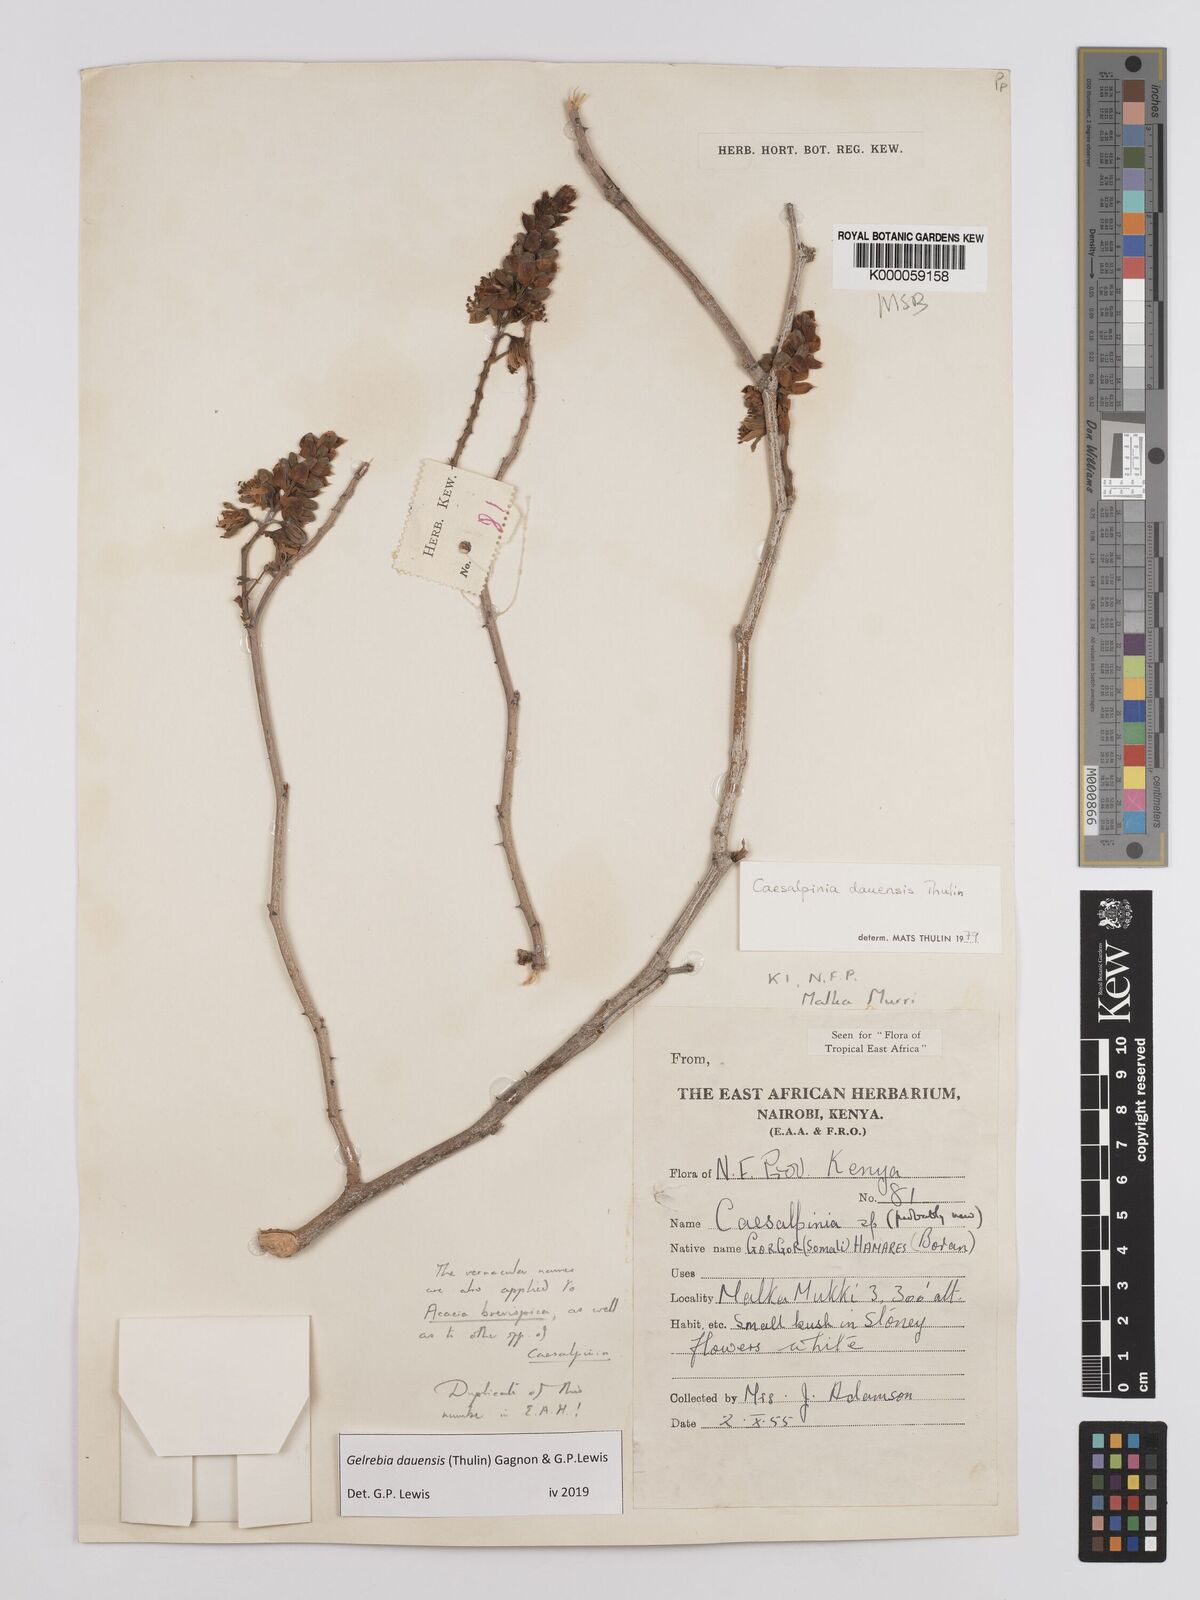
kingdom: Plantae
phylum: Tracheophyta
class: Magnoliopsida
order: Fabales
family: Fabaceae
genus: Gelrebia
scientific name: Gelrebia dauensis
